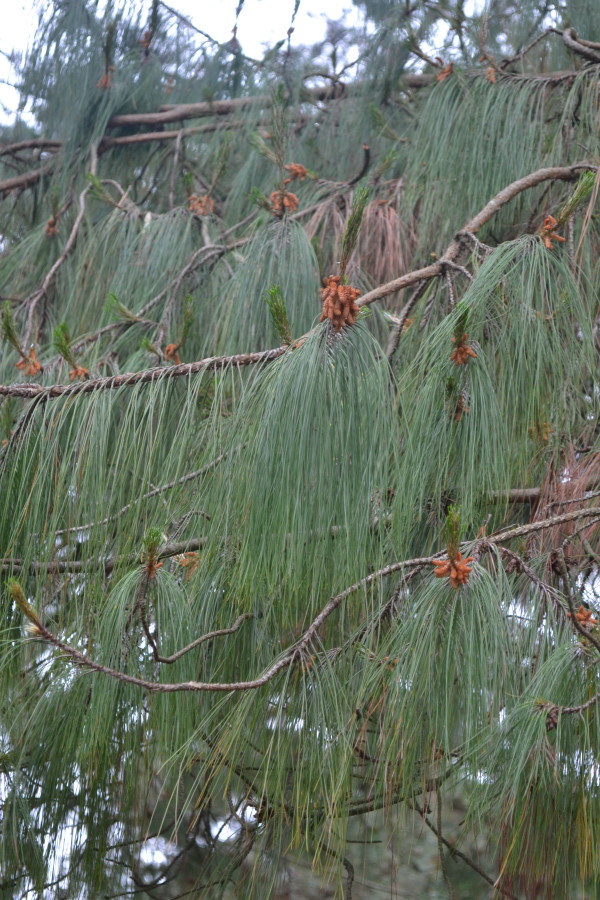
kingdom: Plantae
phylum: Tracheophyta
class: Pinopsida
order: Pinales
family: Pinaceae
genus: Pinus
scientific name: Pinus patula
